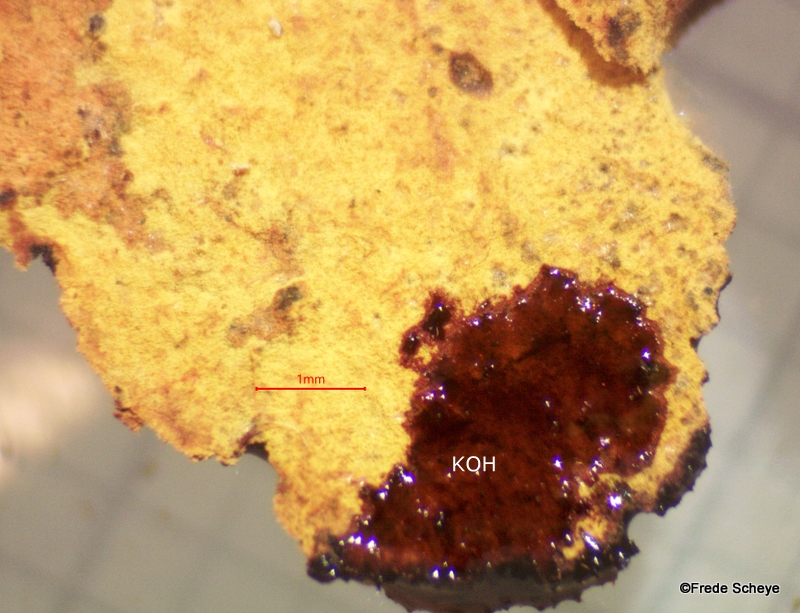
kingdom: Fungi
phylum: Ascomycota
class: Sordariomycetes
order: Xylariales
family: Hypoxylaceae
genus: Hypoxylon
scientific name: Hypoxylon
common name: kulbær
